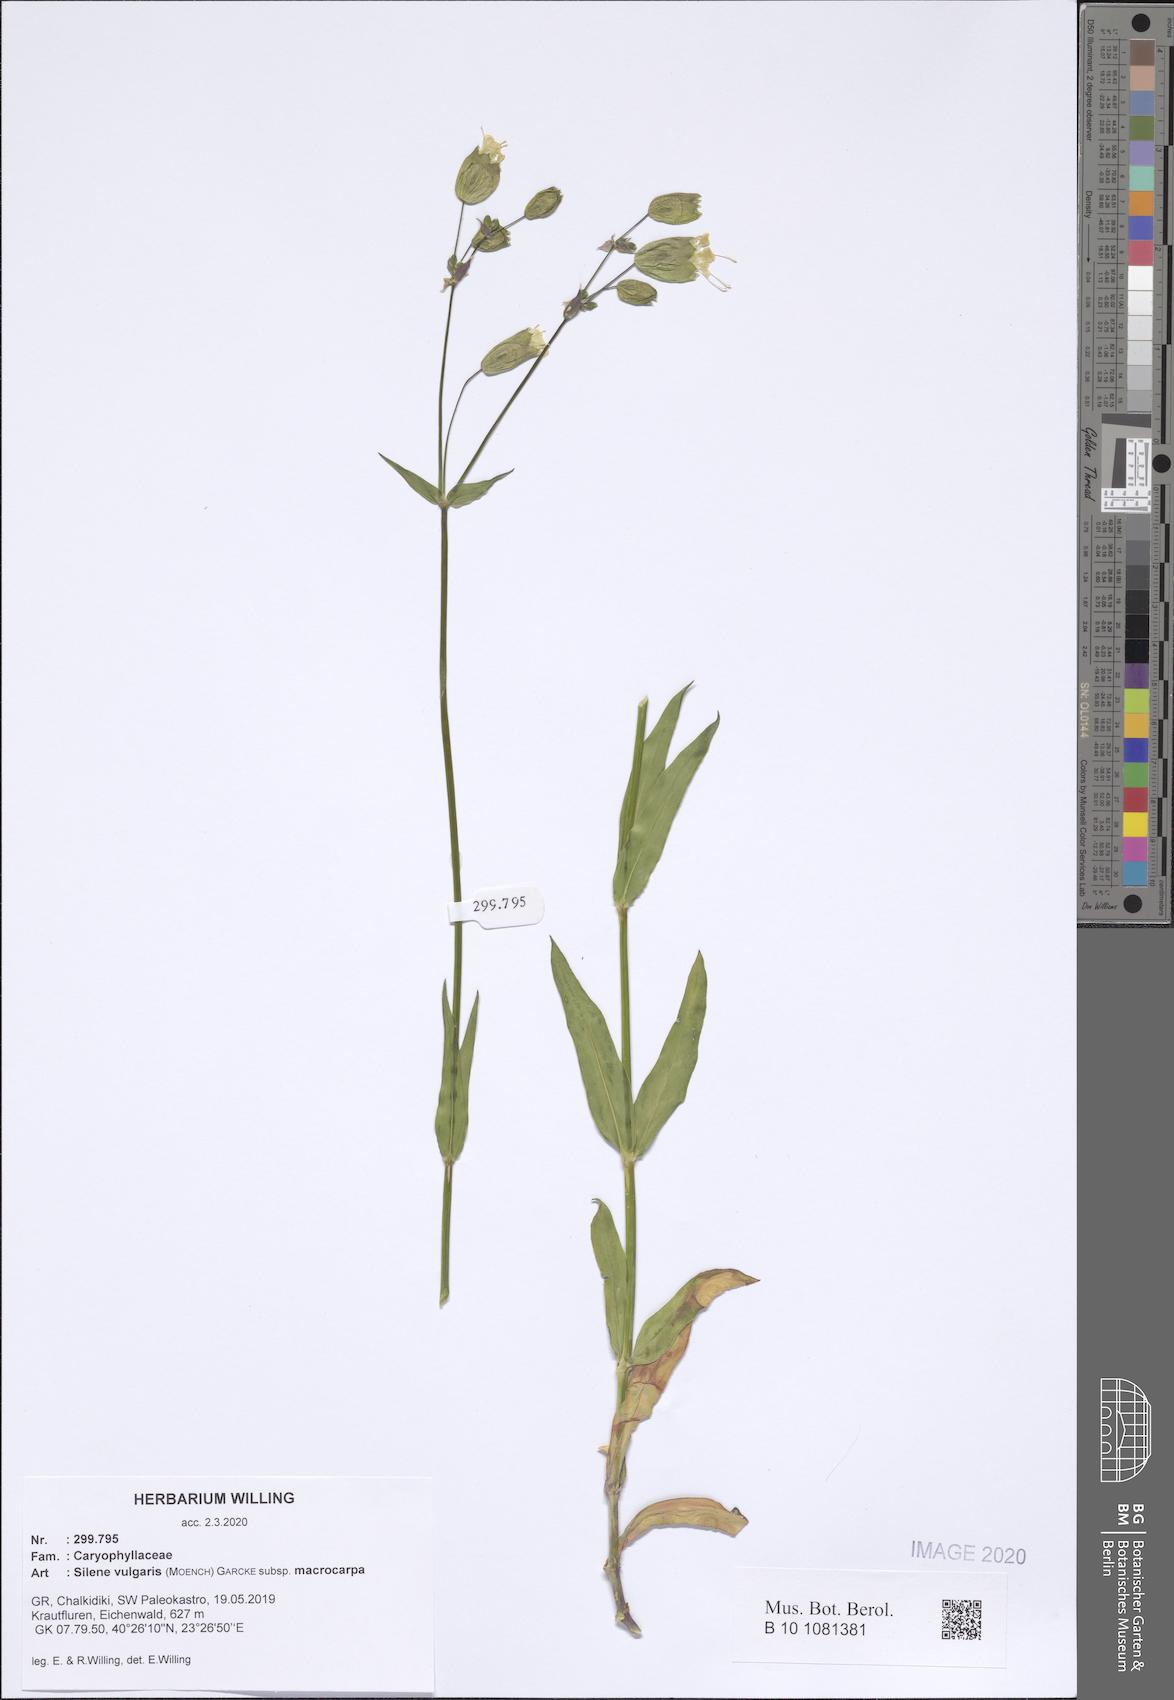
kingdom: Plantae
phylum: Tracheophyta
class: Magnoliopsida
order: Caryophyllales
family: Caryophyllaceae
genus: Silene
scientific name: Silene vulgaris
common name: Bladder campion
